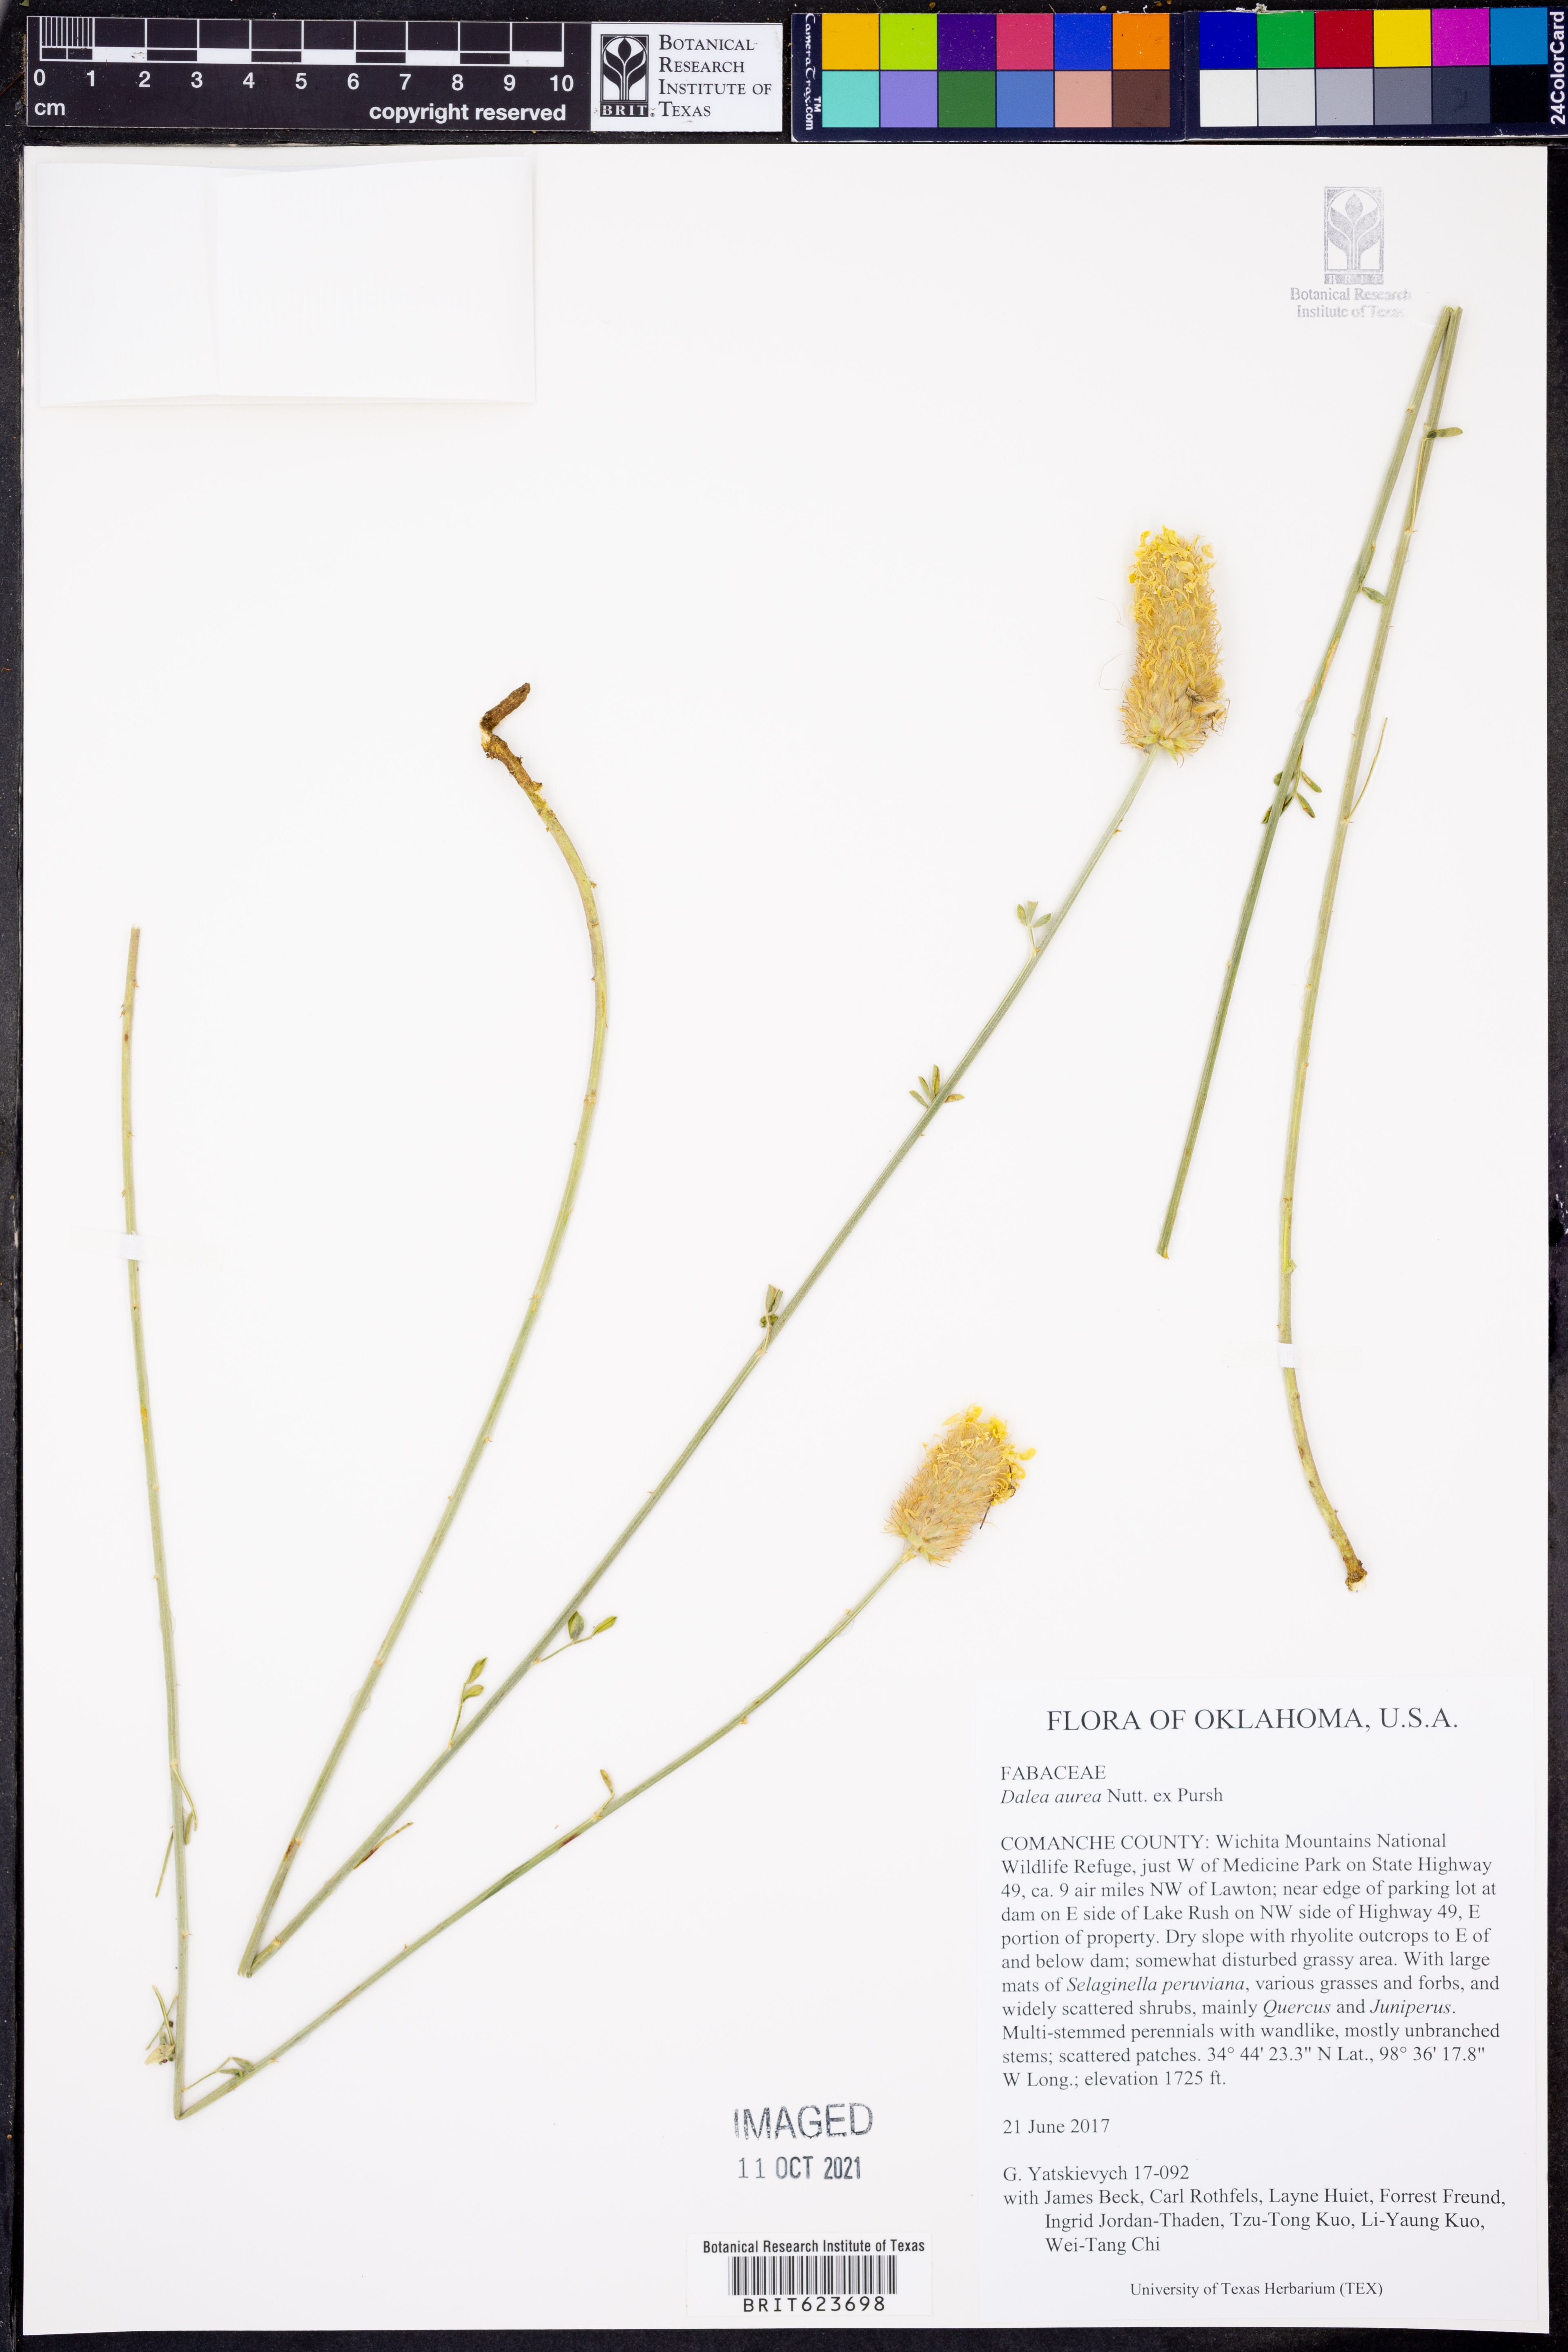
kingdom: Plantae
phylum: Tracheophyta
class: Magnoliopsida
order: Fabales
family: Fabaceae
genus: Dalea
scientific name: Dalea aurea
